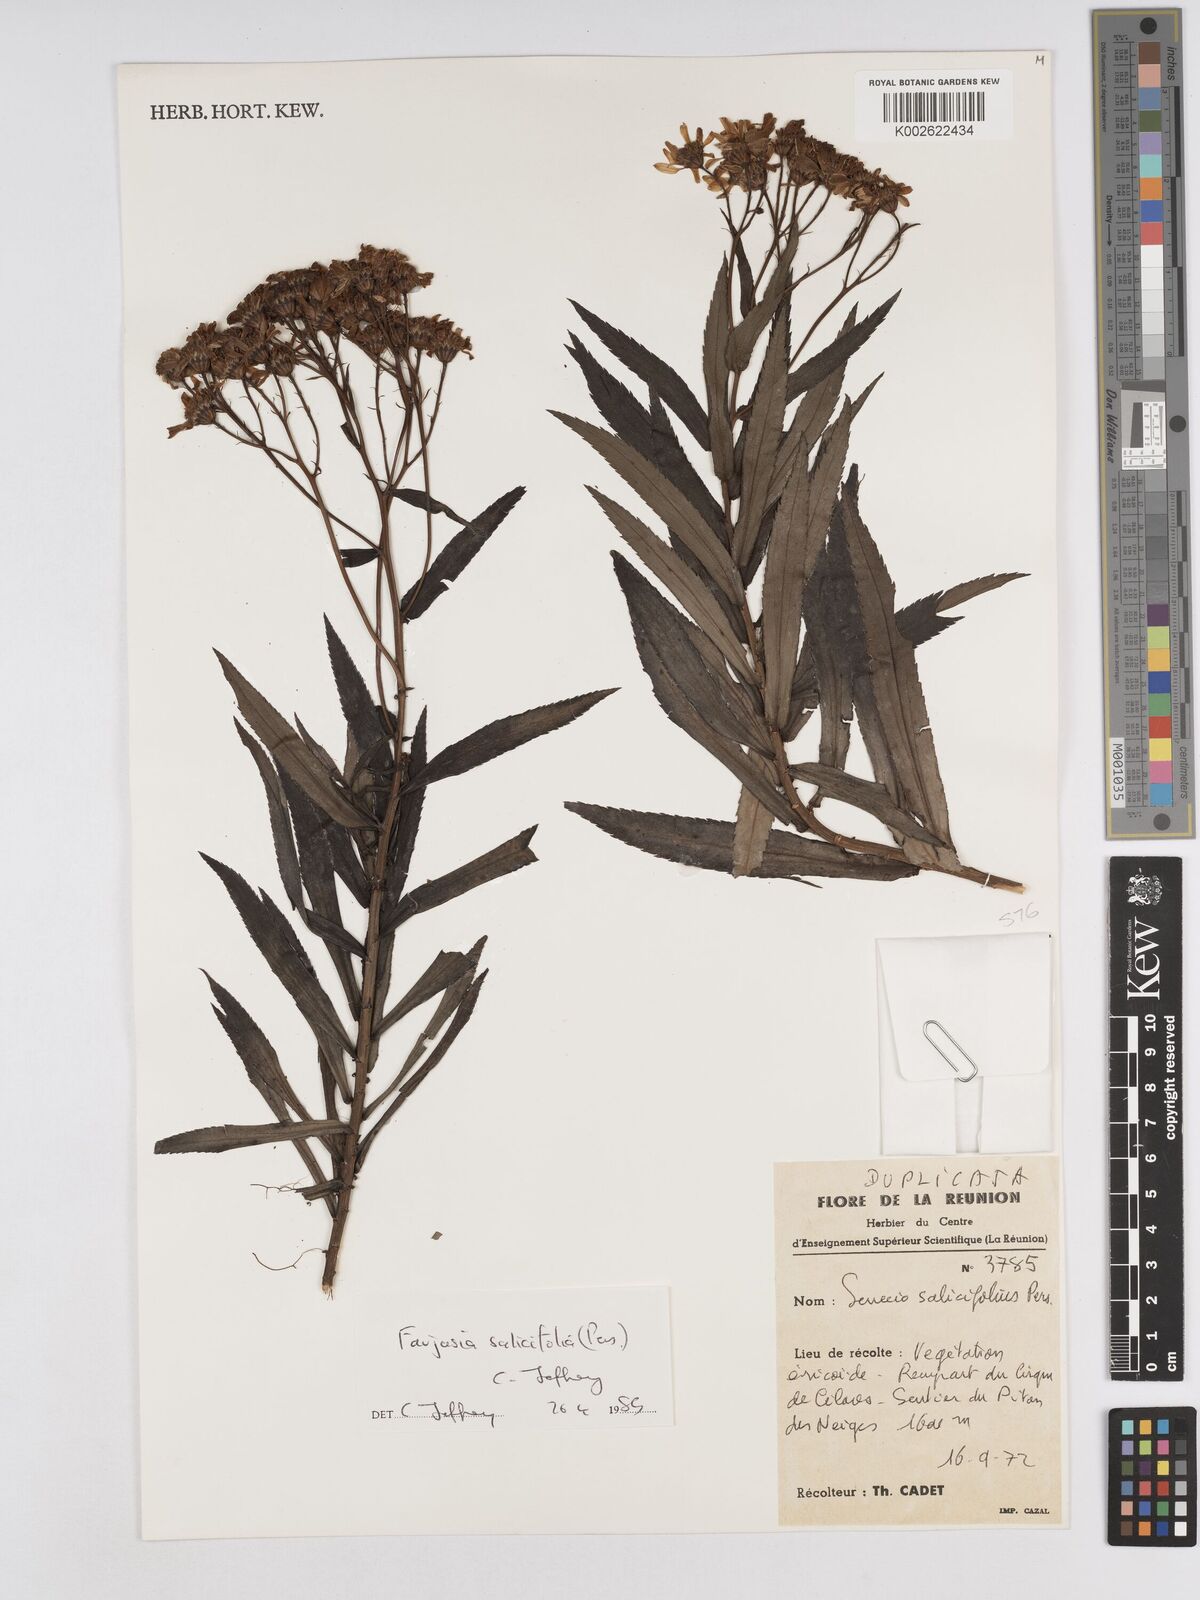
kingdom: Plantae
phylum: Tracheophyta
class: Magnoliopsida
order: Asterales
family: Asteraceae
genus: Faujasia
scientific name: Faujasia salicifolia
